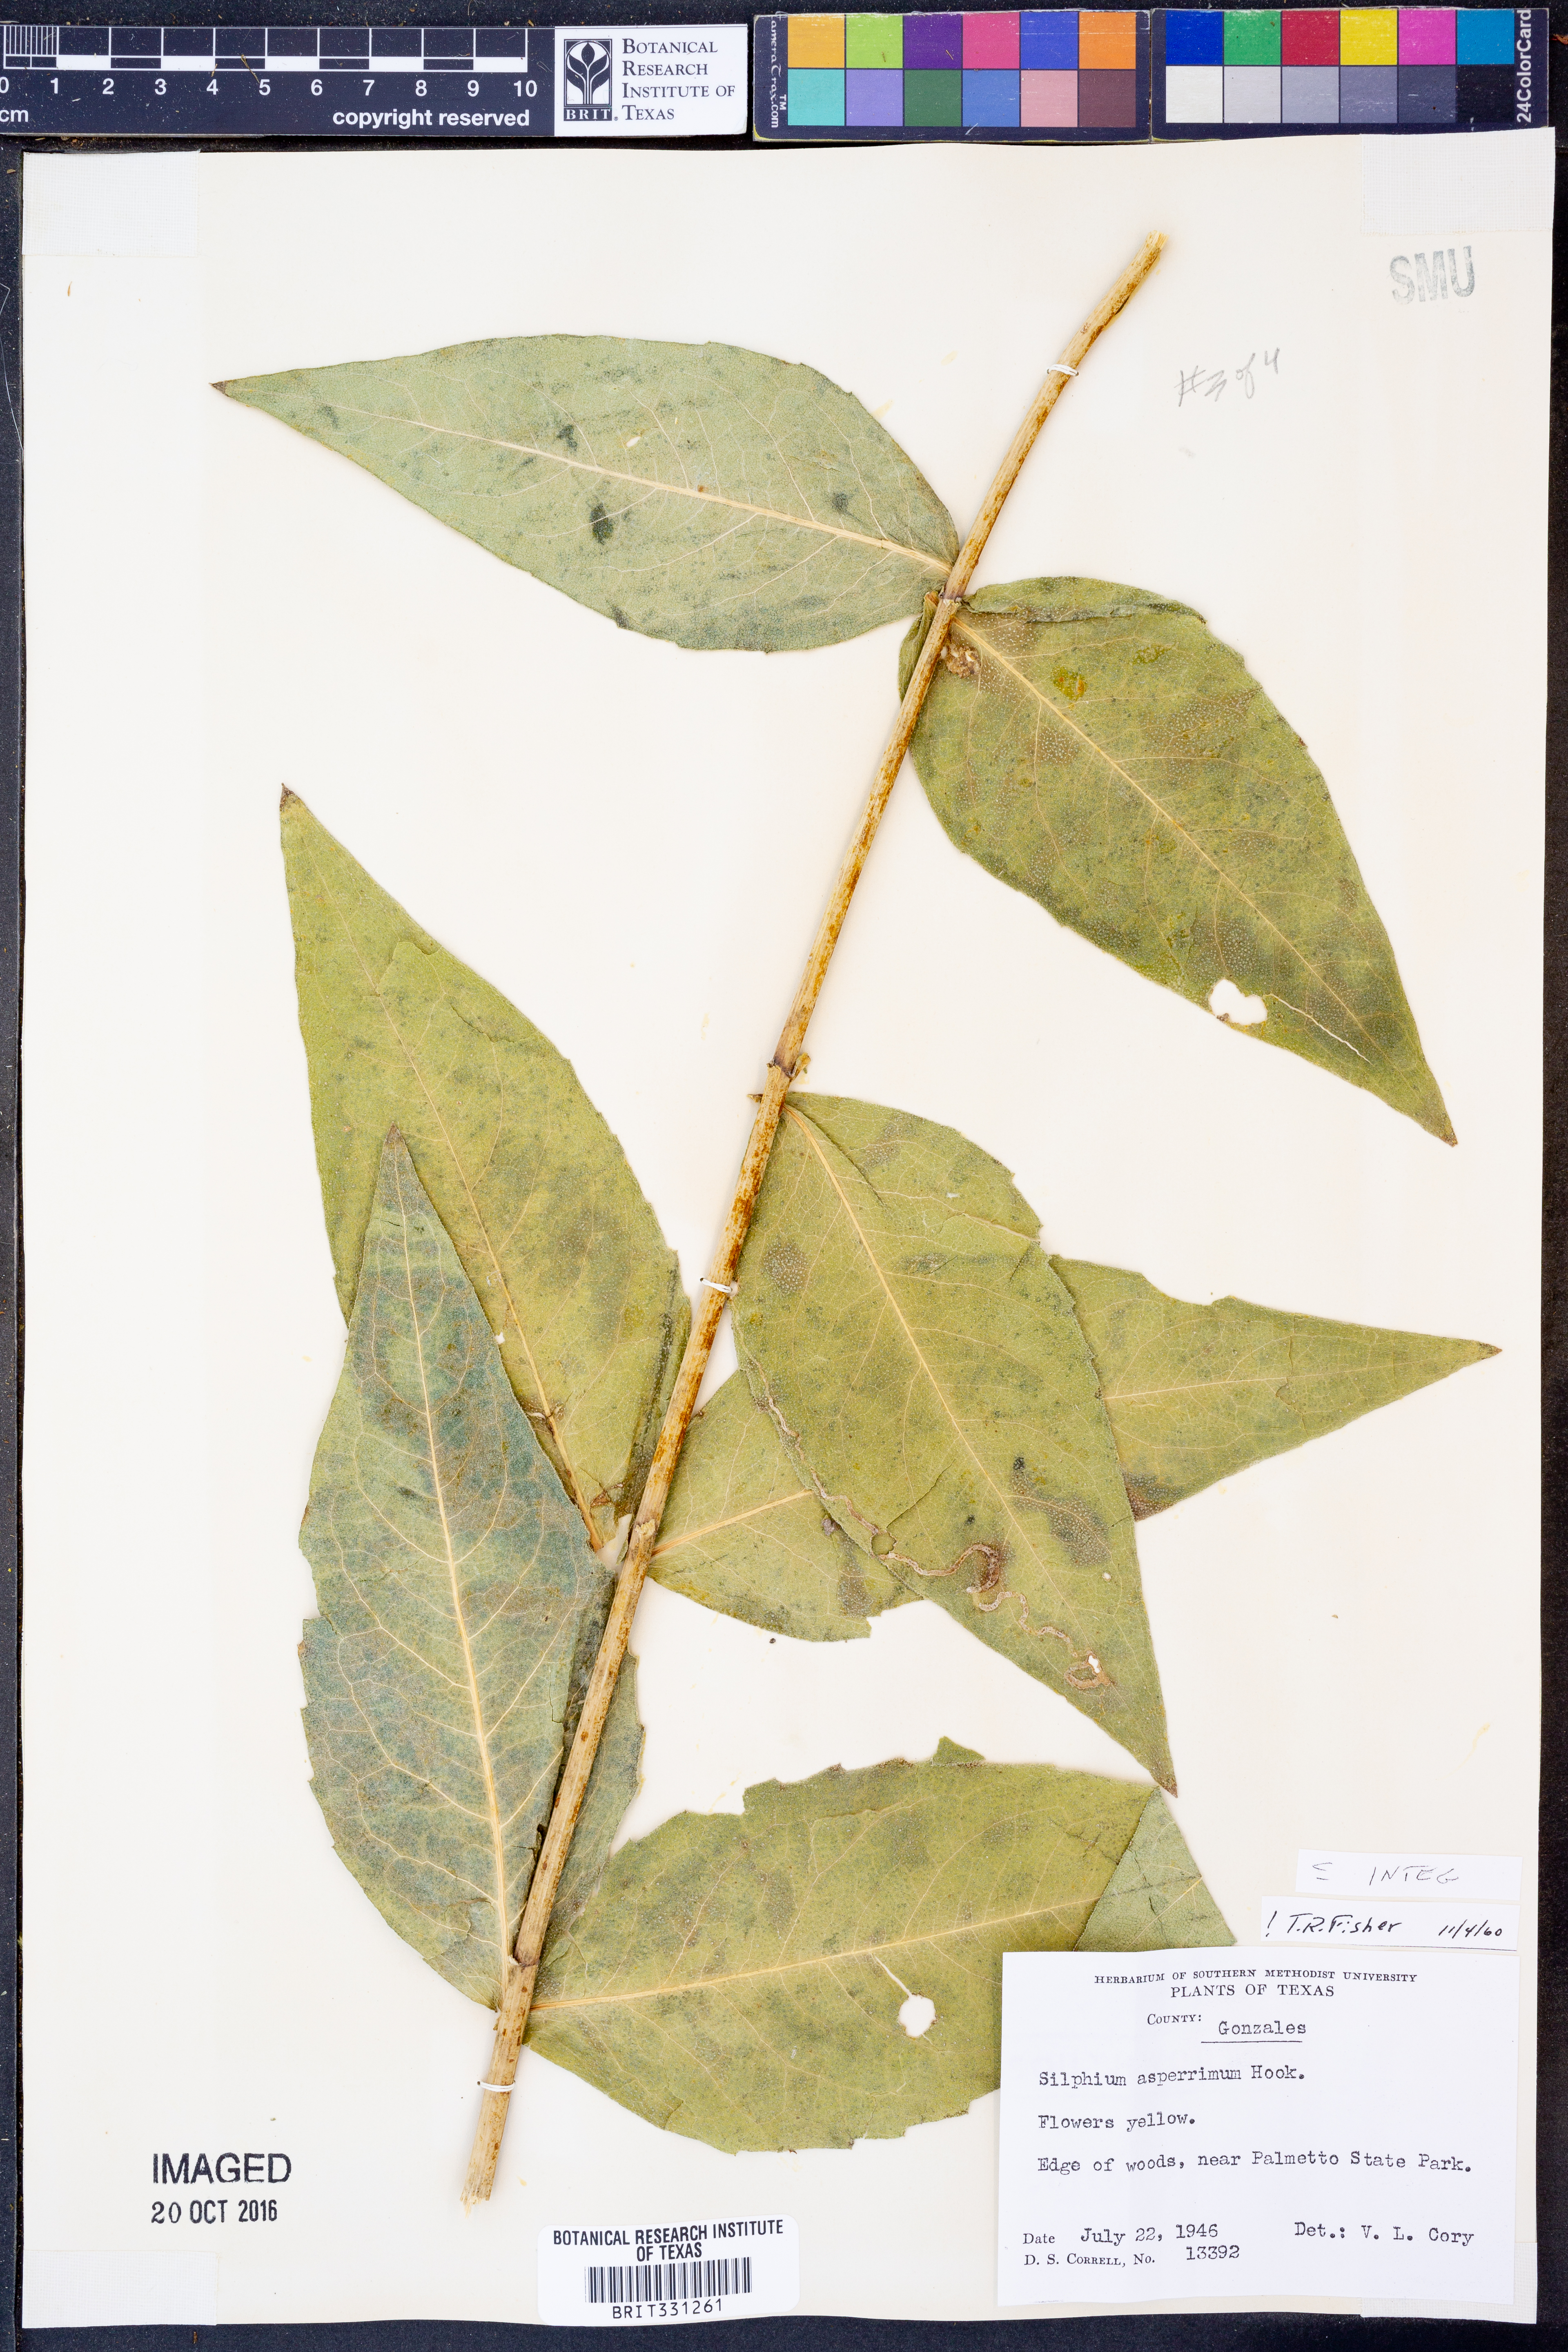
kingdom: Plantae
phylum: Tracheophyta
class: Magnoliopsida
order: Asterales
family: Asteraceae
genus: Silphium
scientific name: Silphium integrifolium
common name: Whole-leaf rosinweed
